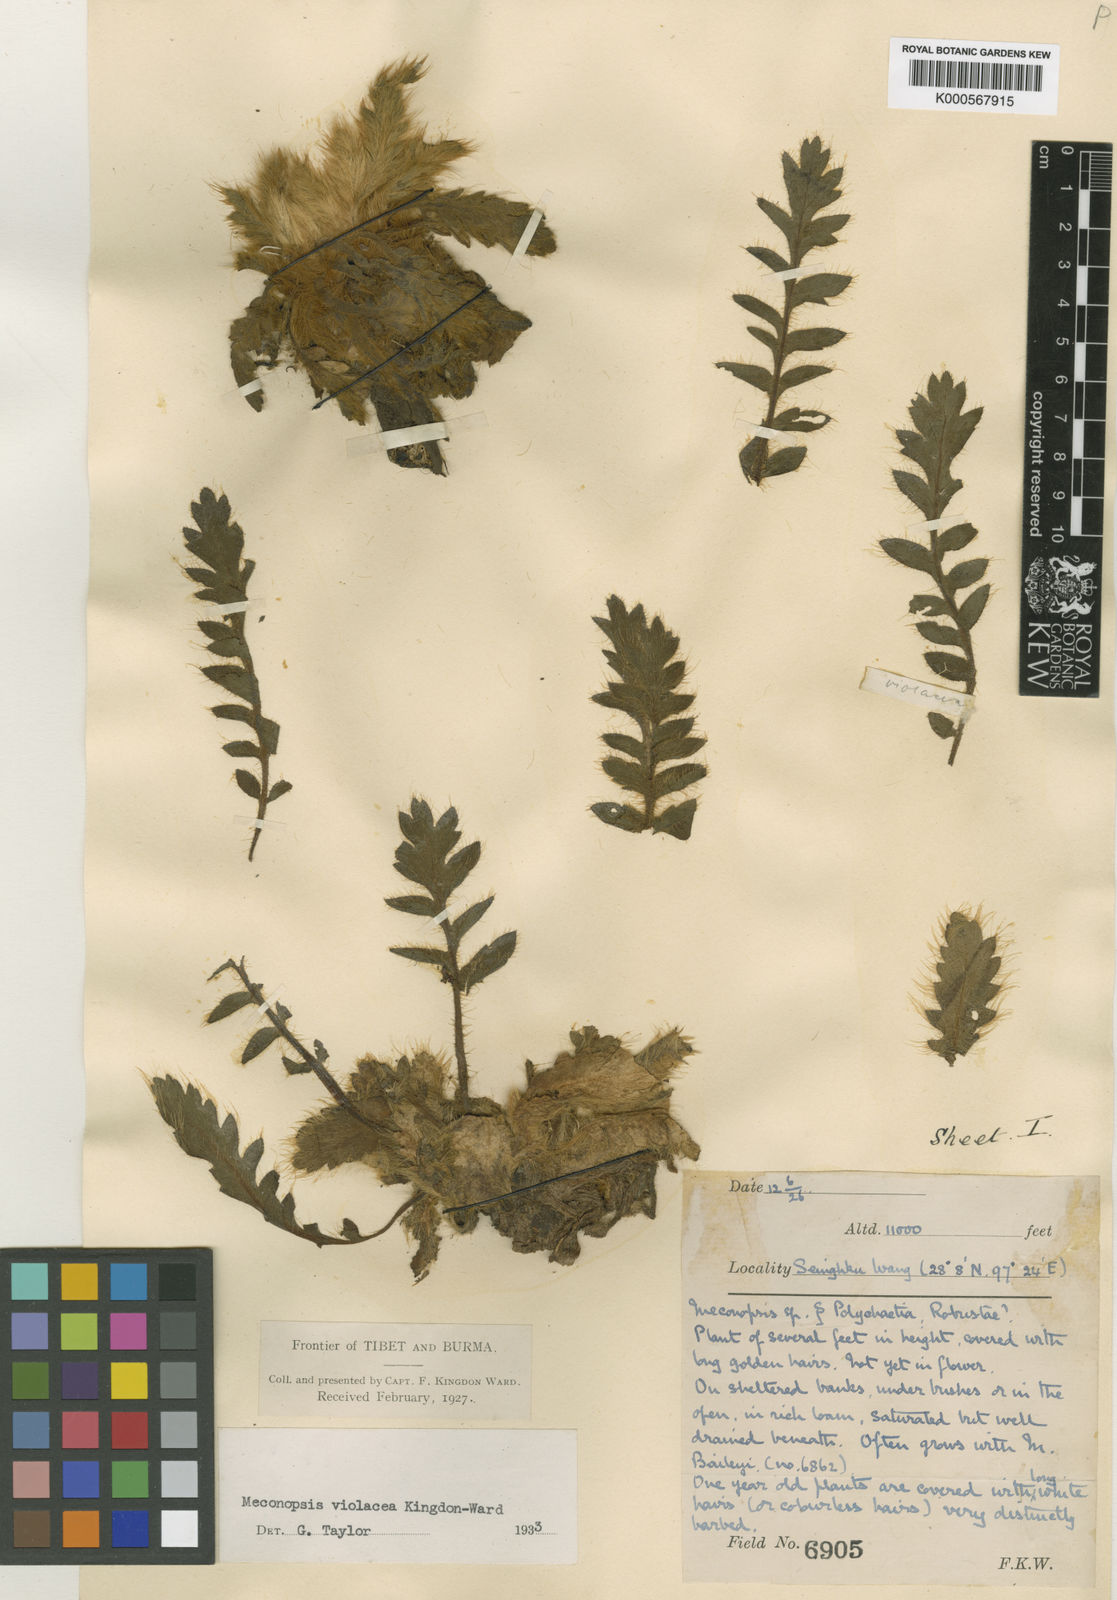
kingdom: Plantae
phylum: Tracheophyta
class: Magnoliopsida
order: Ranunculales
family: Papaveraceae
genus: Meconopsis
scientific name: Meconopsis violacea
